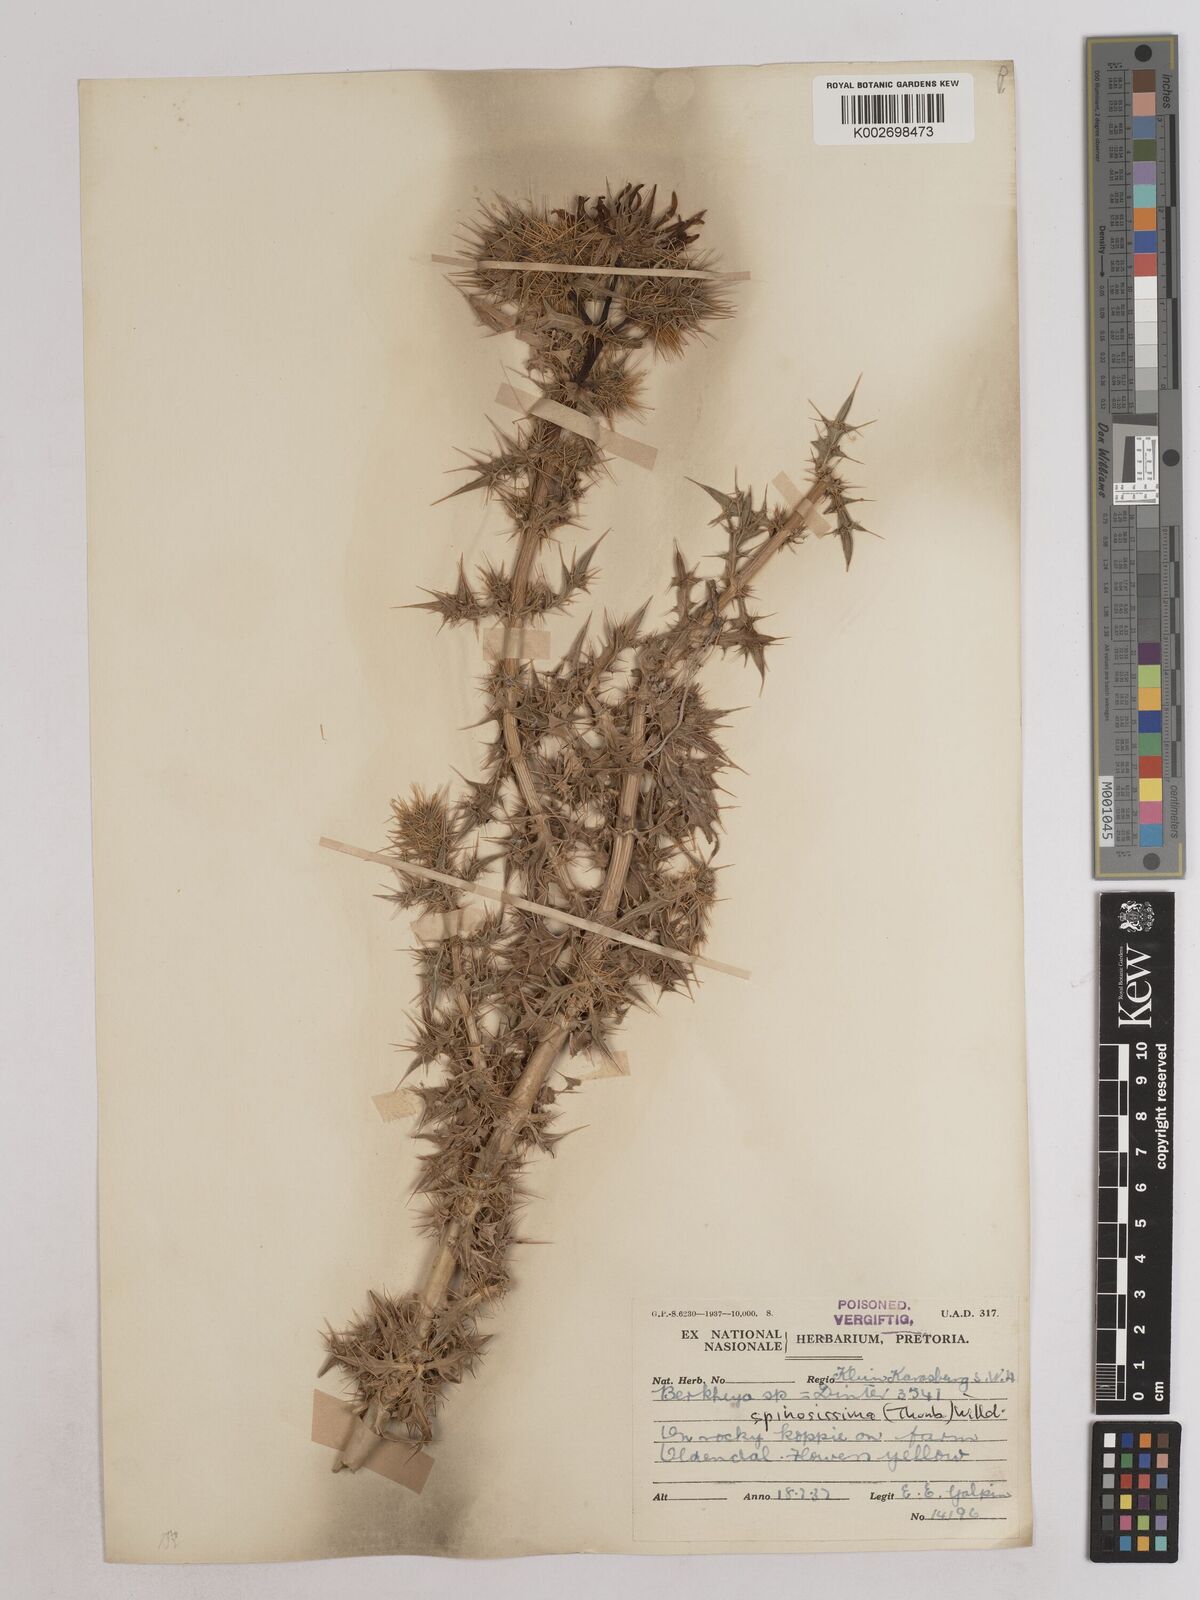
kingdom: Plantae
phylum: Tracheophyta
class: Magnoliopsida
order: Asterales
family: Asteraceae
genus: Berkheya
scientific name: Berkheya spinosissima
